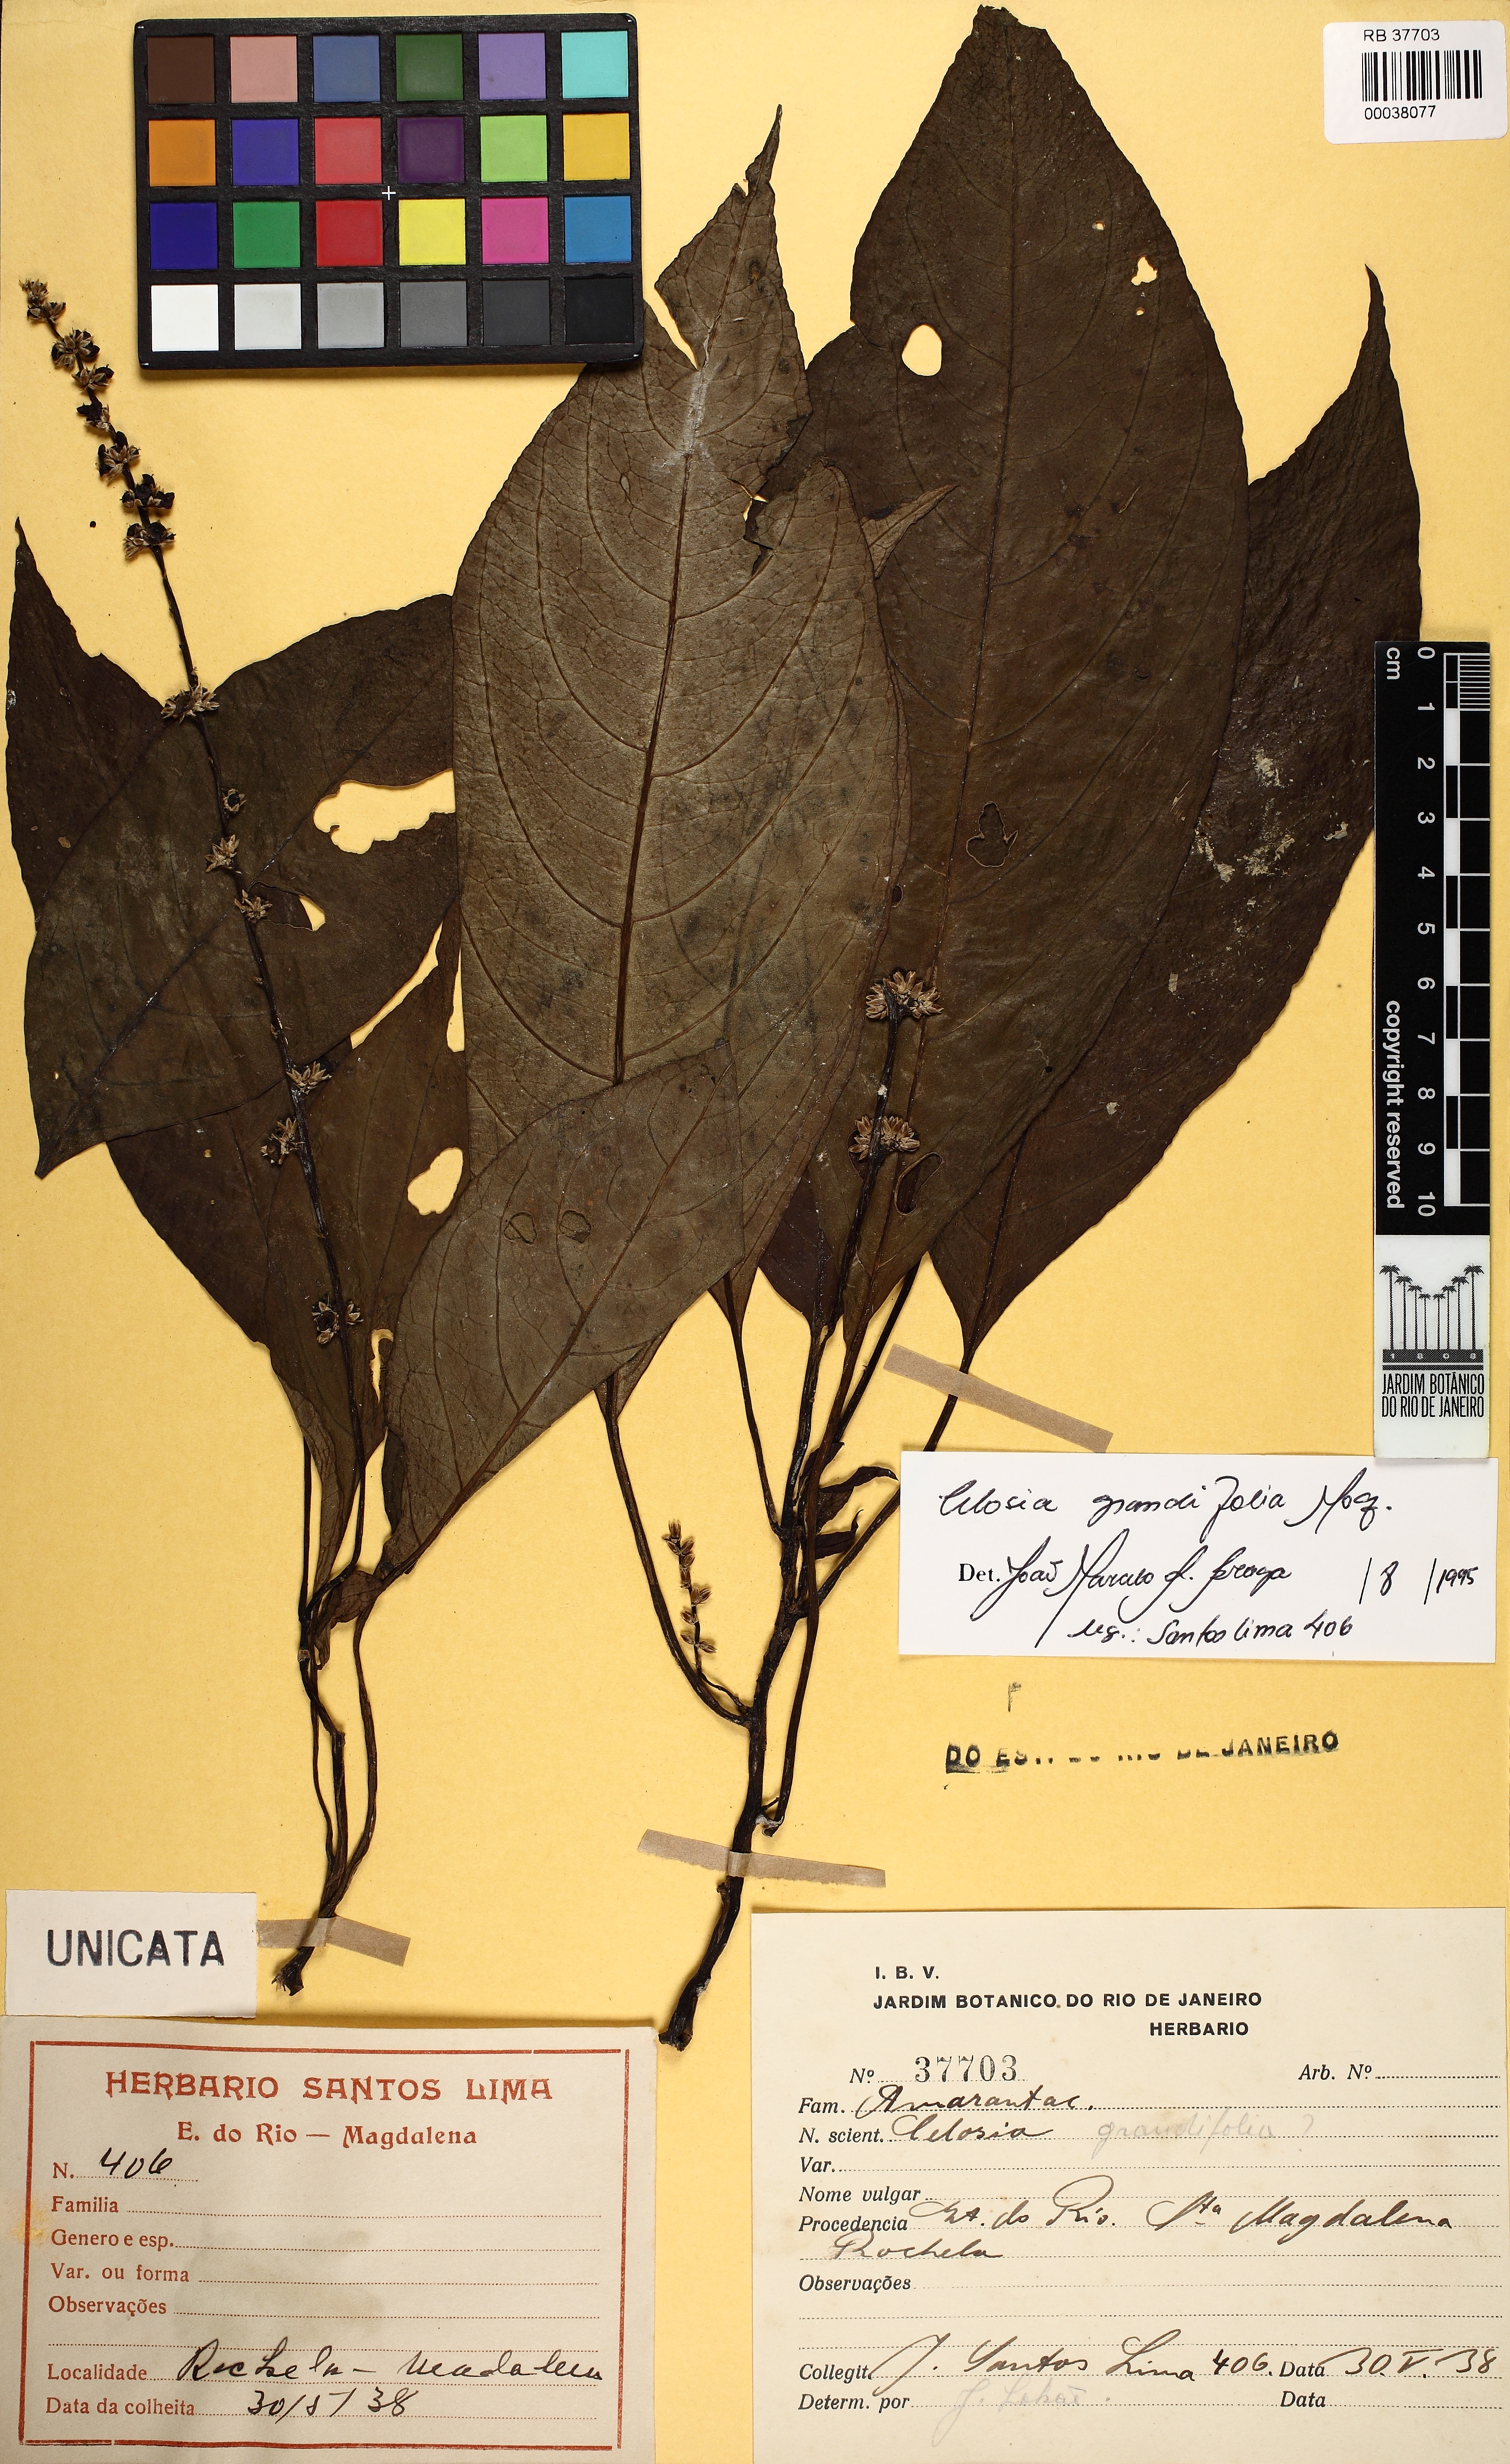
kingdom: Plantae
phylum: Tracheophyta
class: Magnoliopsida
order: Caryophyllales
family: Amaranthaceae
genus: Celosia
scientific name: Celosia grandifolia
